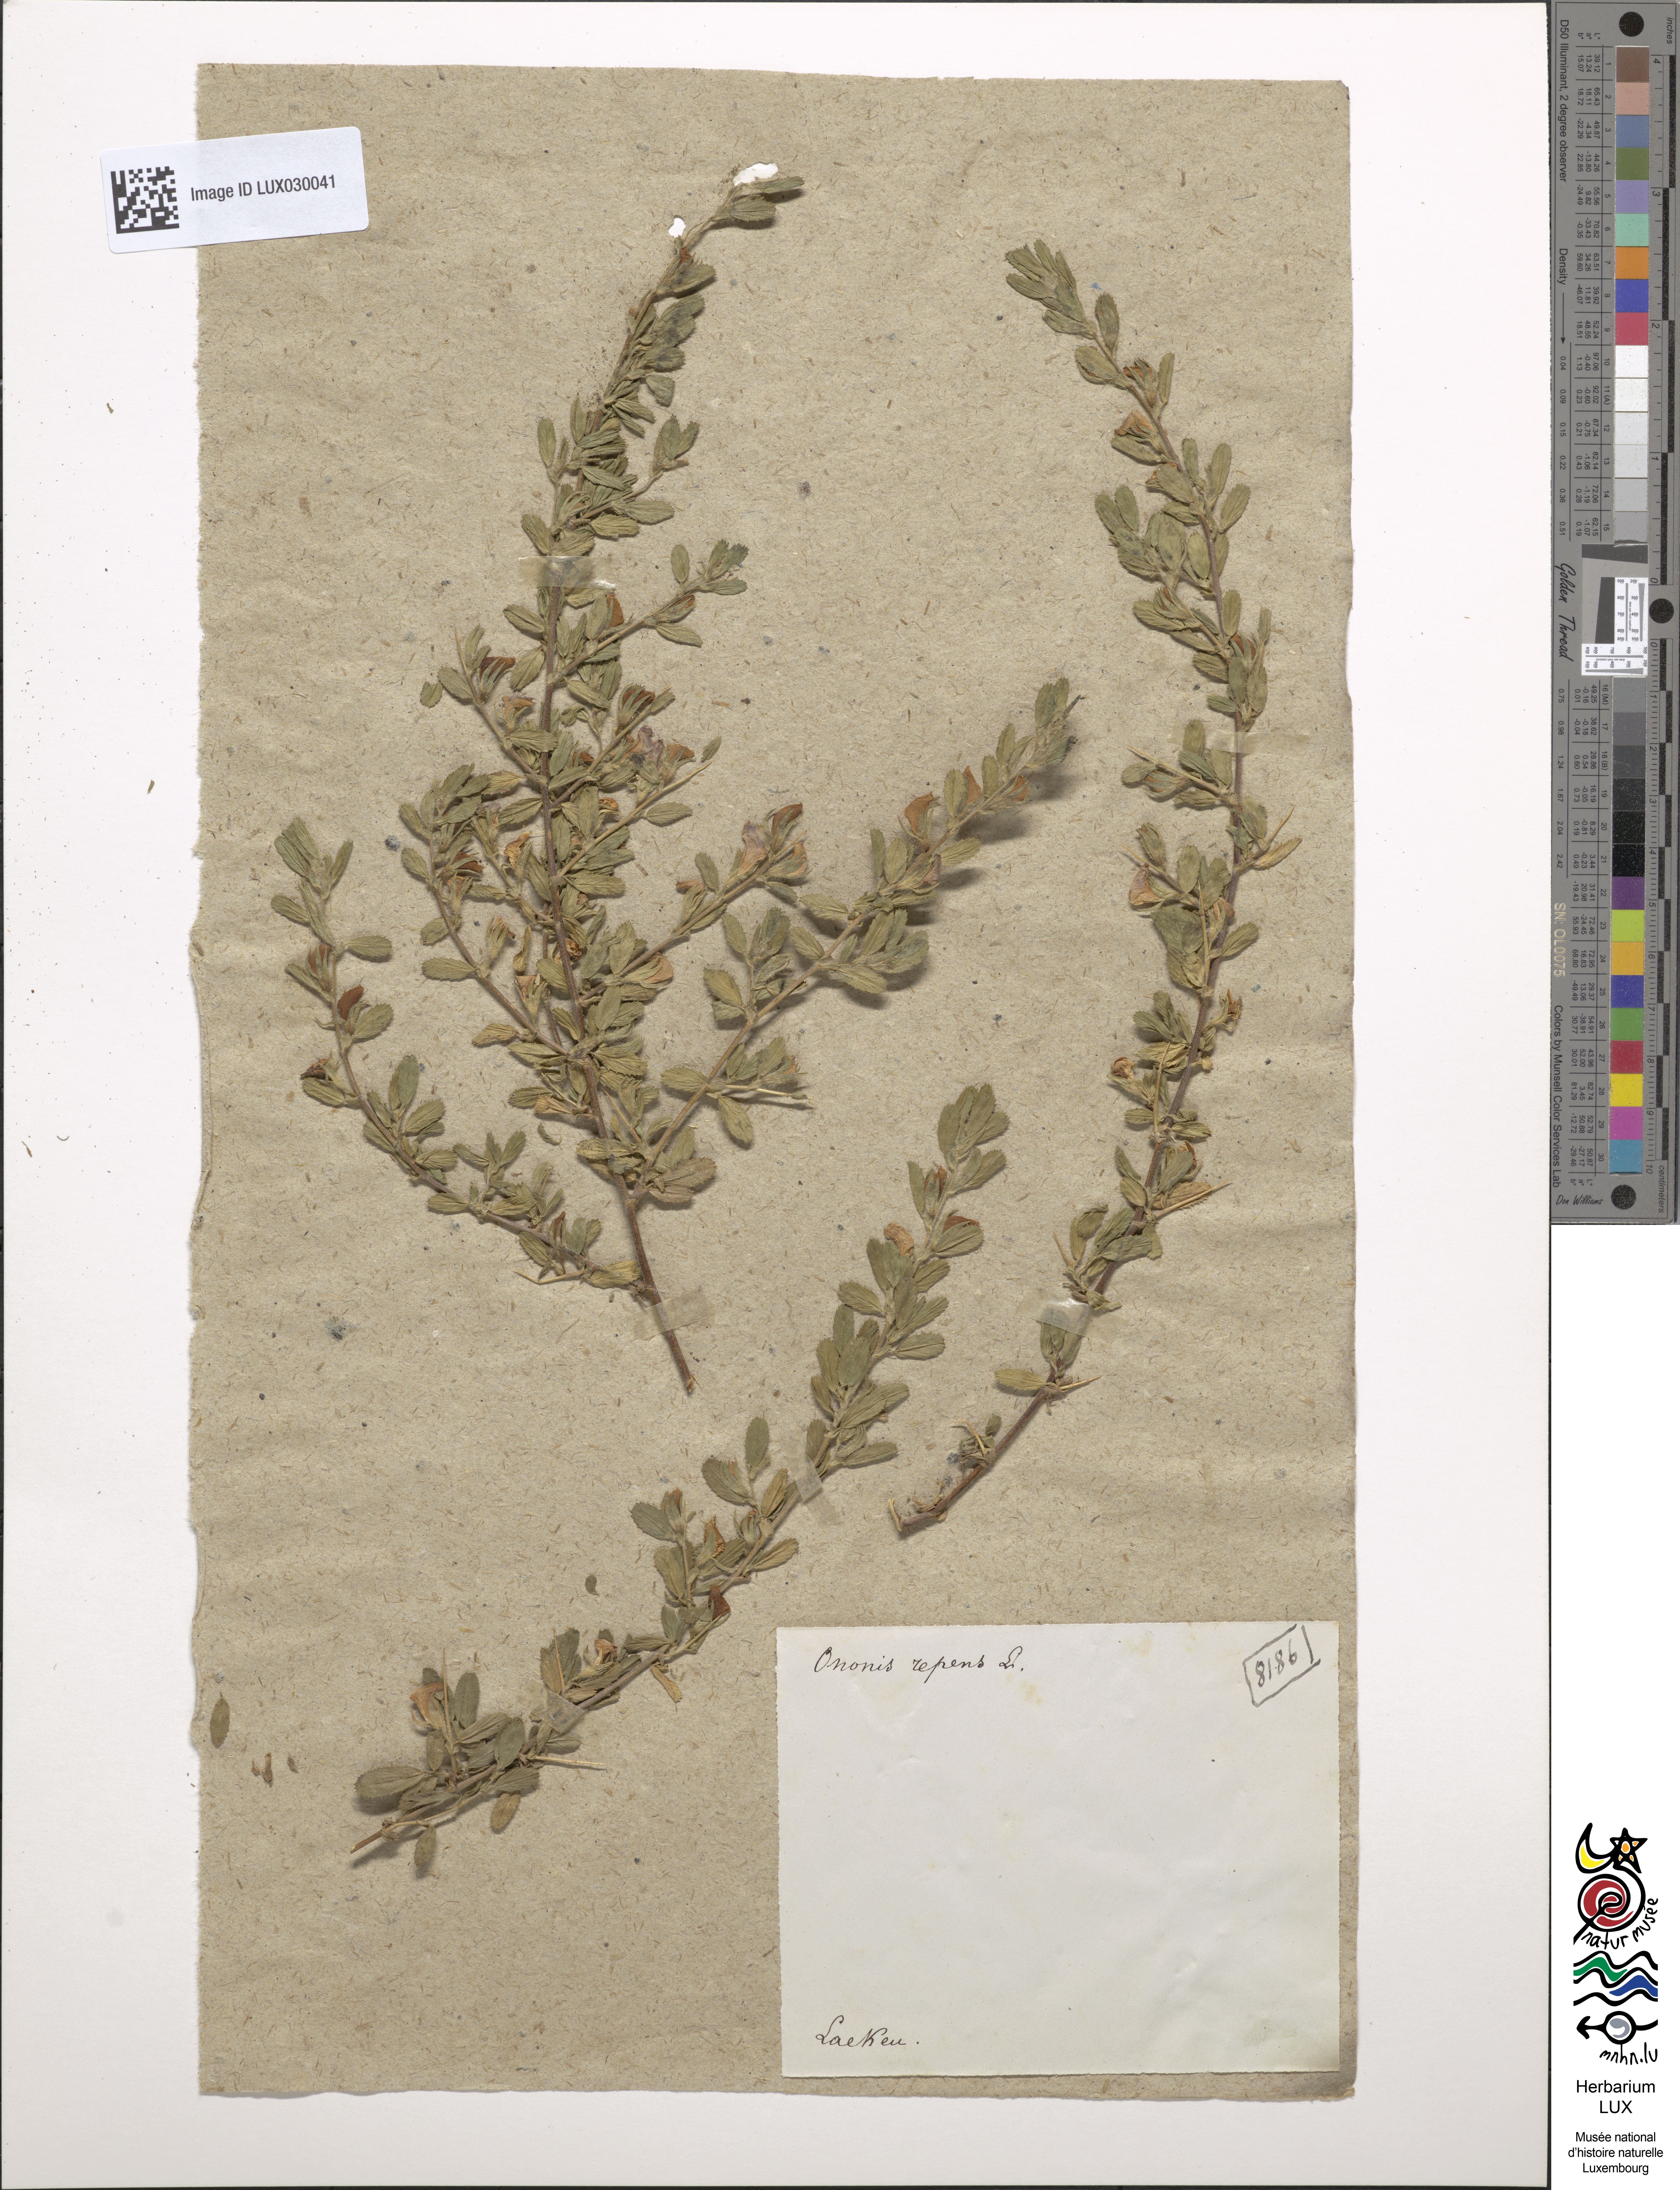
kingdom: Plantae
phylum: Tracheophyta
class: Magnoliopsida
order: Fabales
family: Fabaceae
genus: Ononis
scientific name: Ononis spinosa
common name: Spiny restharrow
